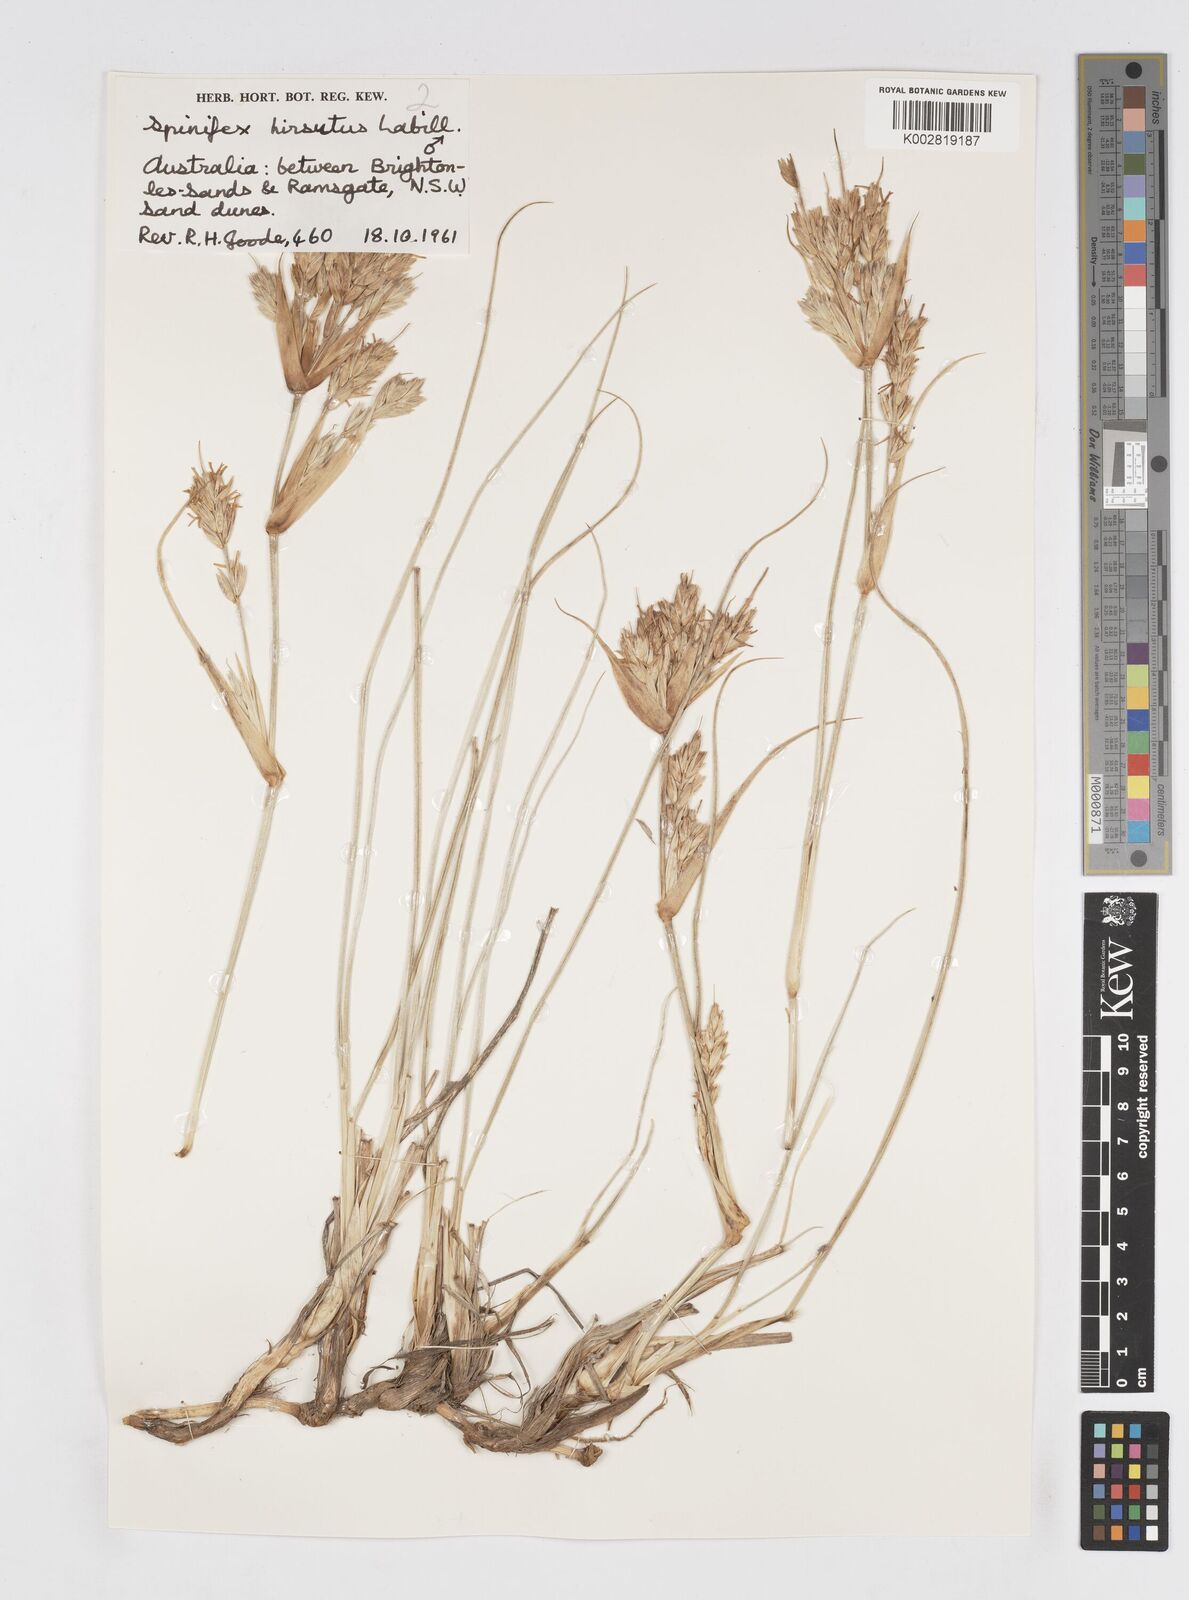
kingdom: Plantae
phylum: Tracheophyta
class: Liliopsida
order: Poales
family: Poaceae
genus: Spinifex
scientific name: Spinifex sericeus
